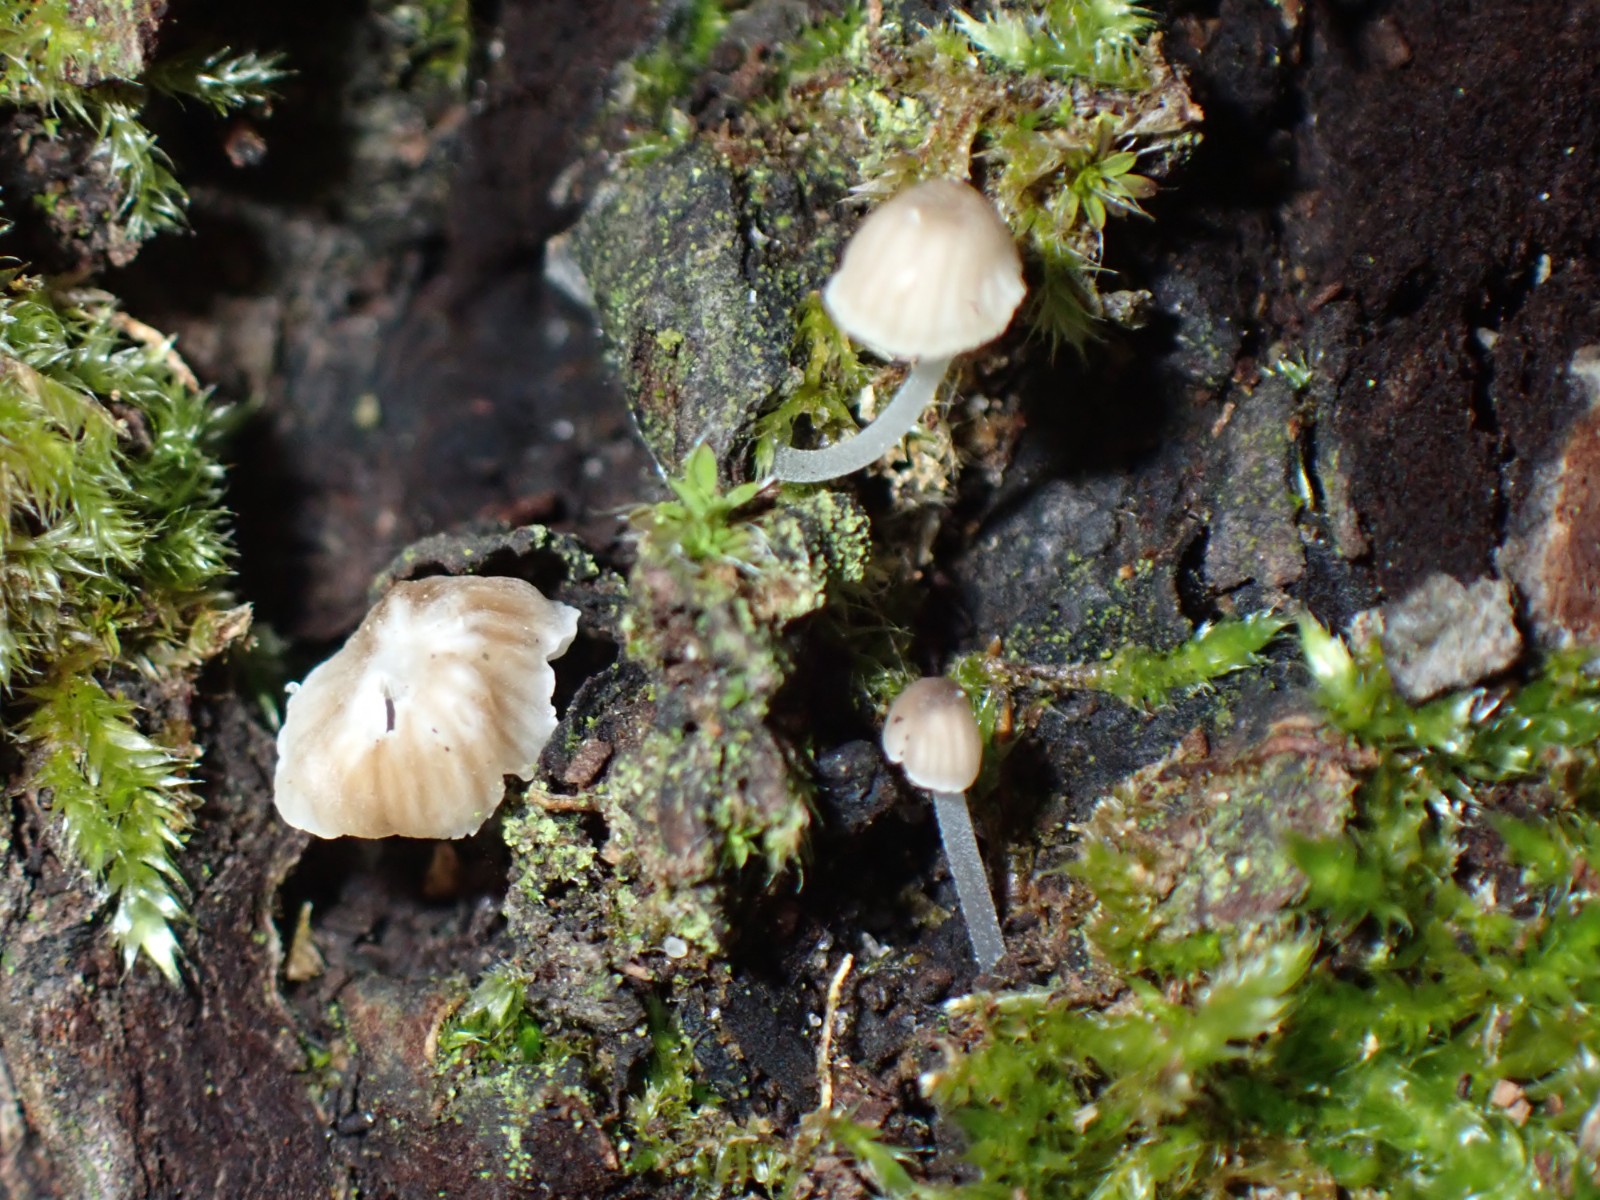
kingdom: Fungi
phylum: Basidiomycota
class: Agaricomycetes
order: Agaricales
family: Porotheleaceae
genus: Phloeomana
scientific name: Phloeomana
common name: huesvamp
